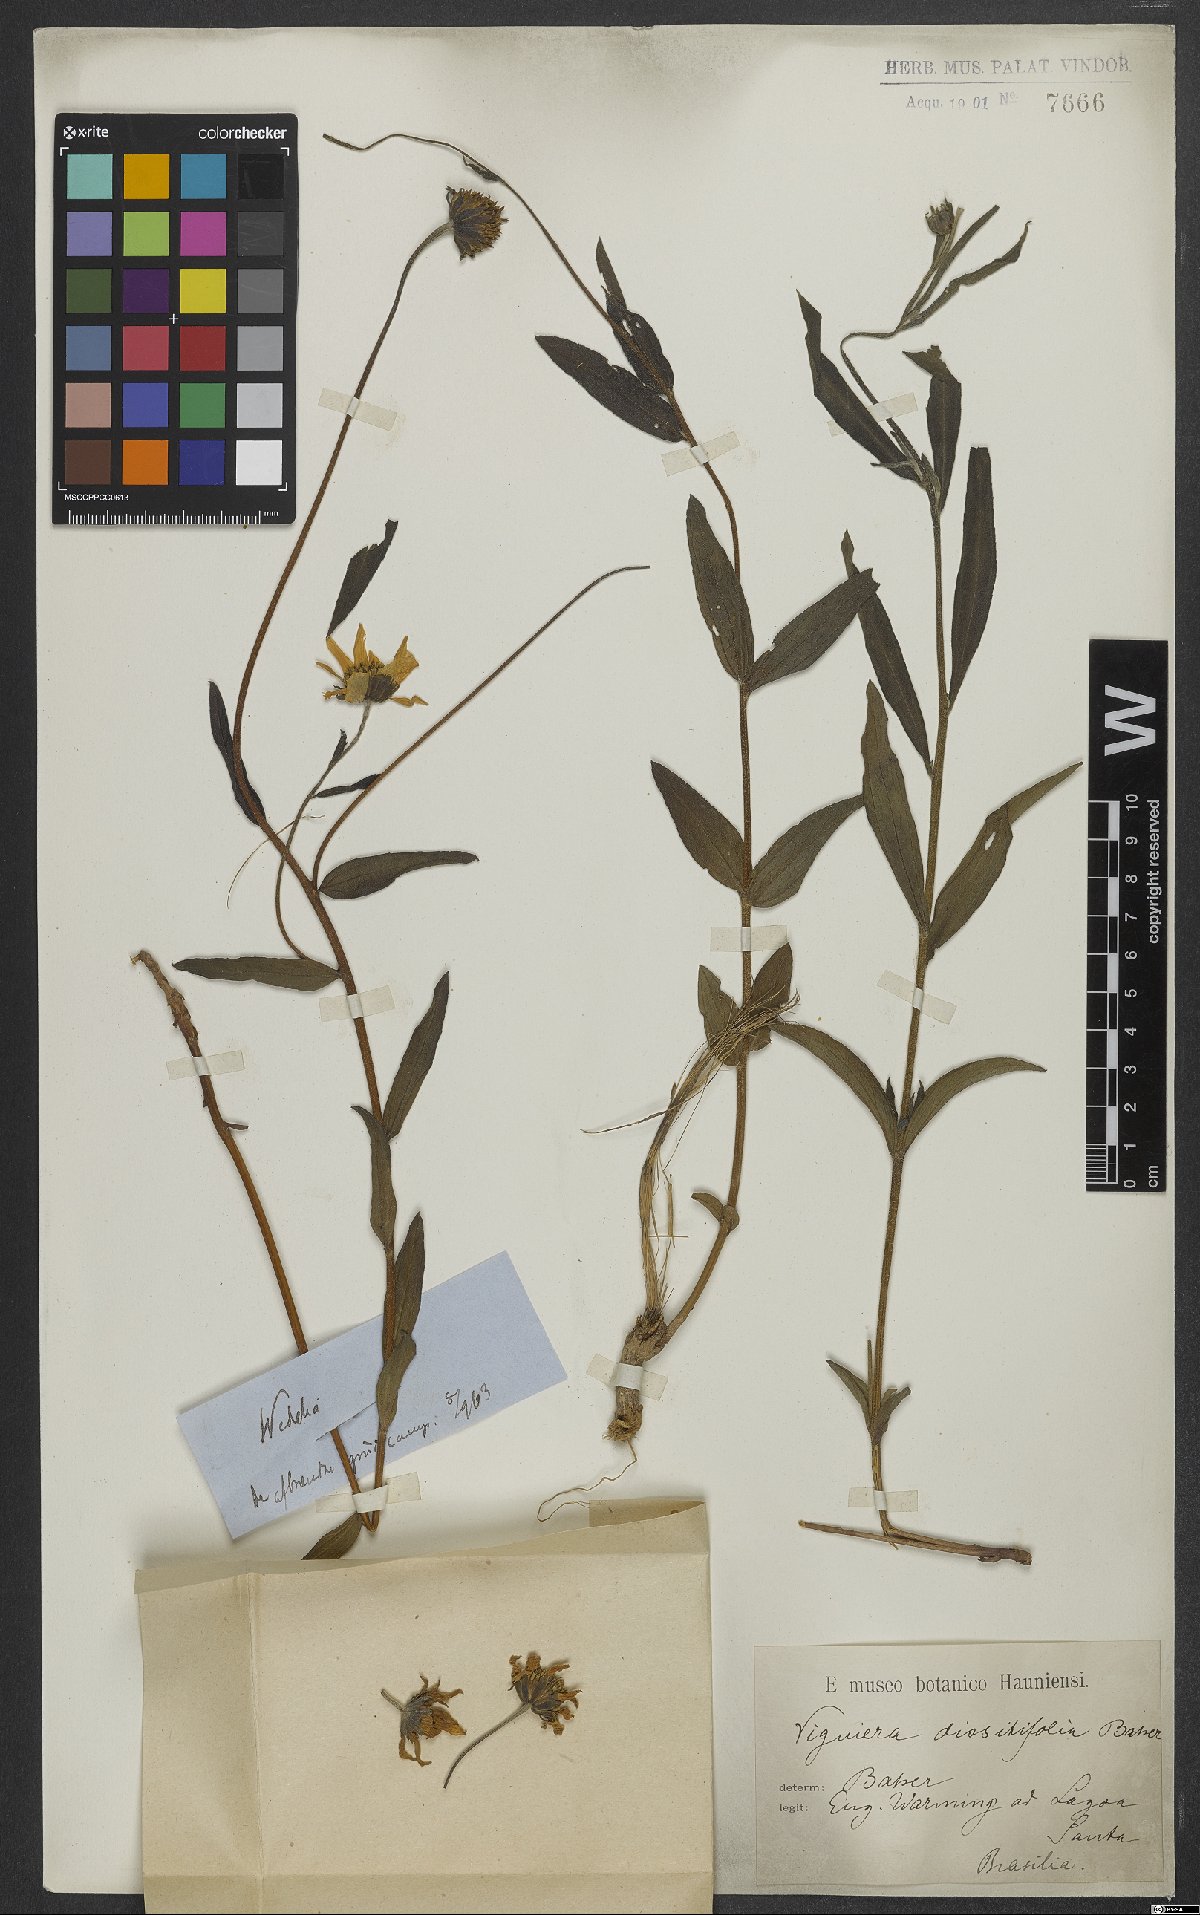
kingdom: Plantae
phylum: Tracheophyta
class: Magnoliopsida
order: Asterales
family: Asteraceae
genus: Aldama
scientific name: Aldama anchusifolia
